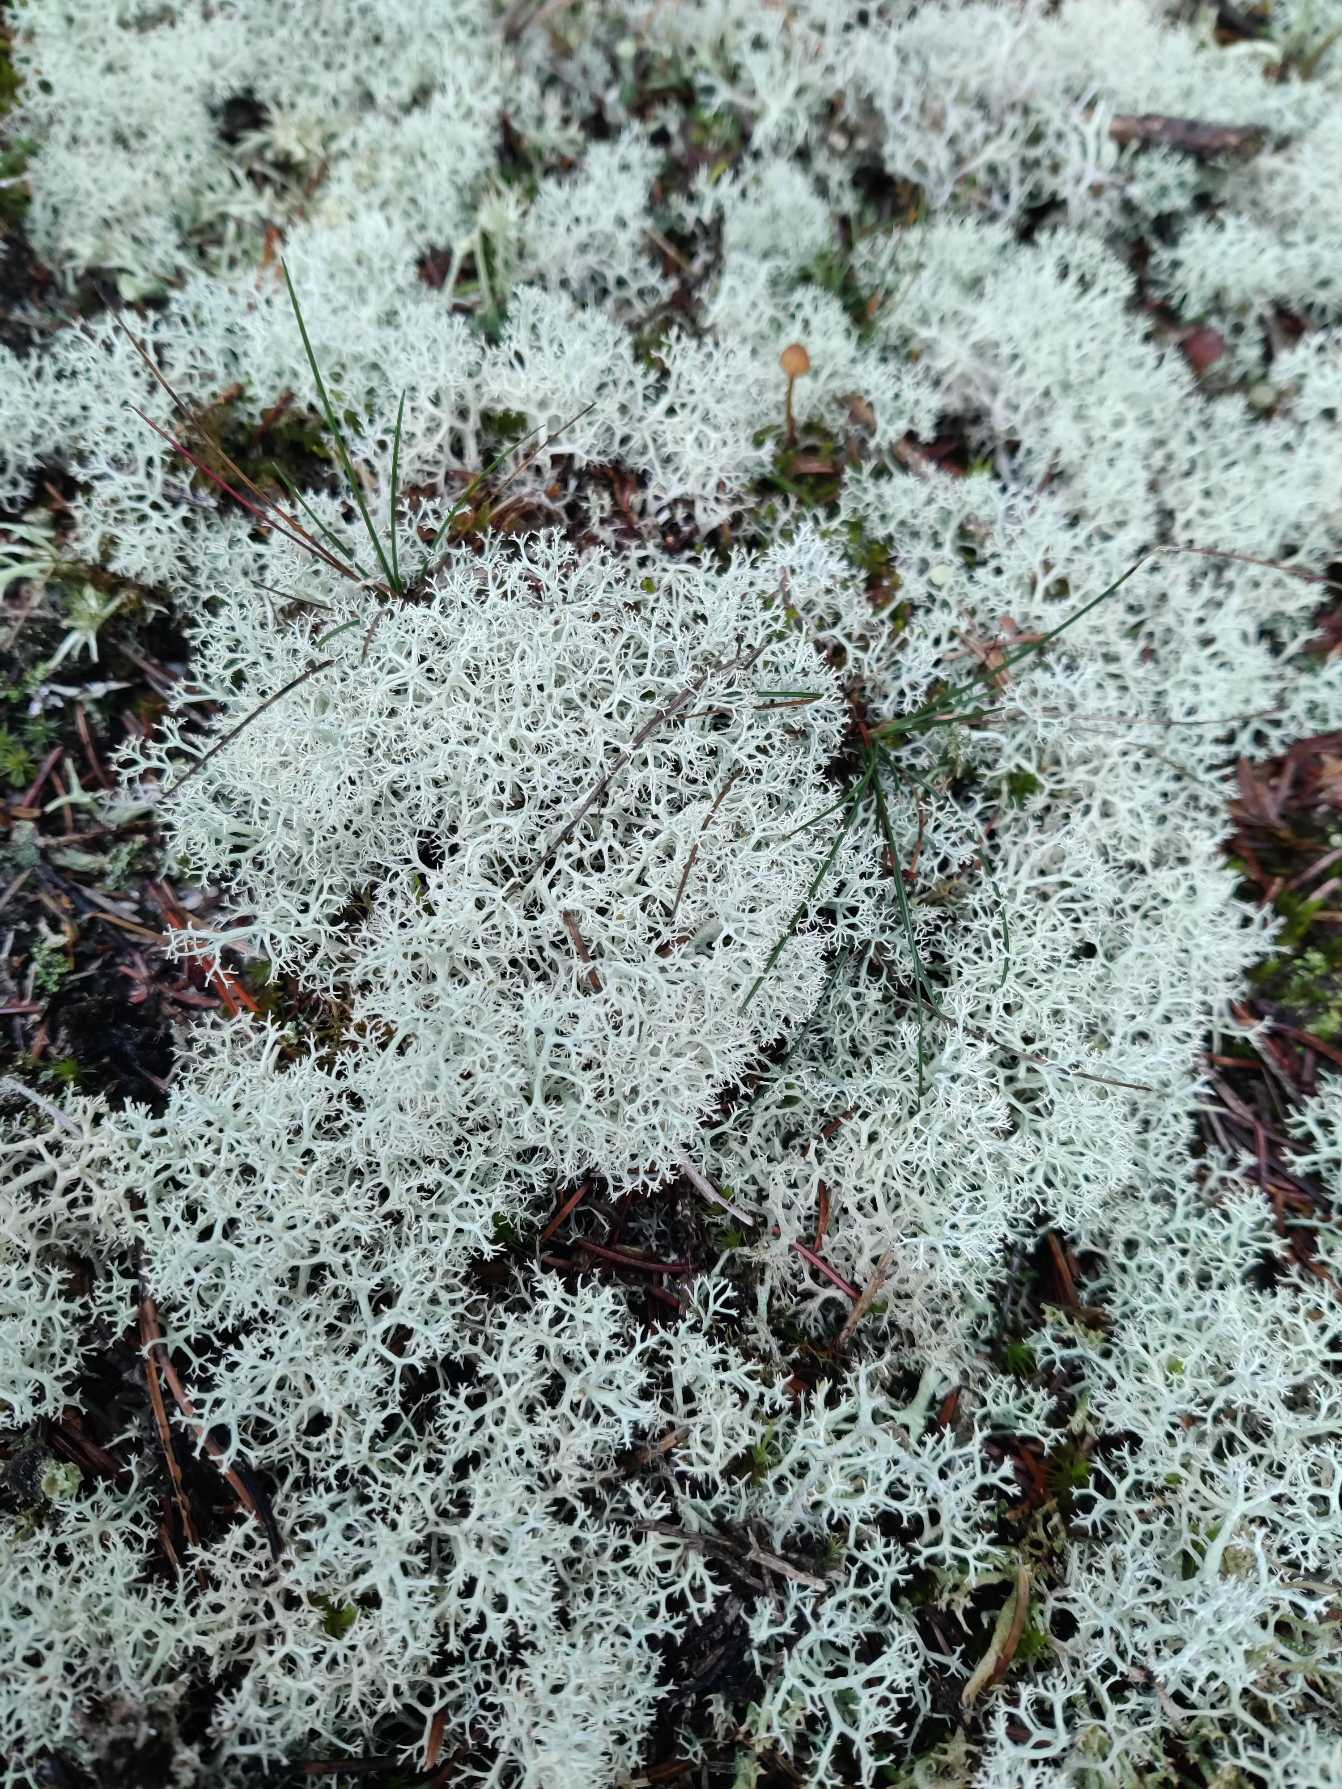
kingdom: Fungi
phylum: Ascomycota
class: Lecanoromycetes
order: Lecanorales
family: Cladoniaceae
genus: Cladonia
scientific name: Cladonia portentosa
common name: Hede-rensdyrlav
